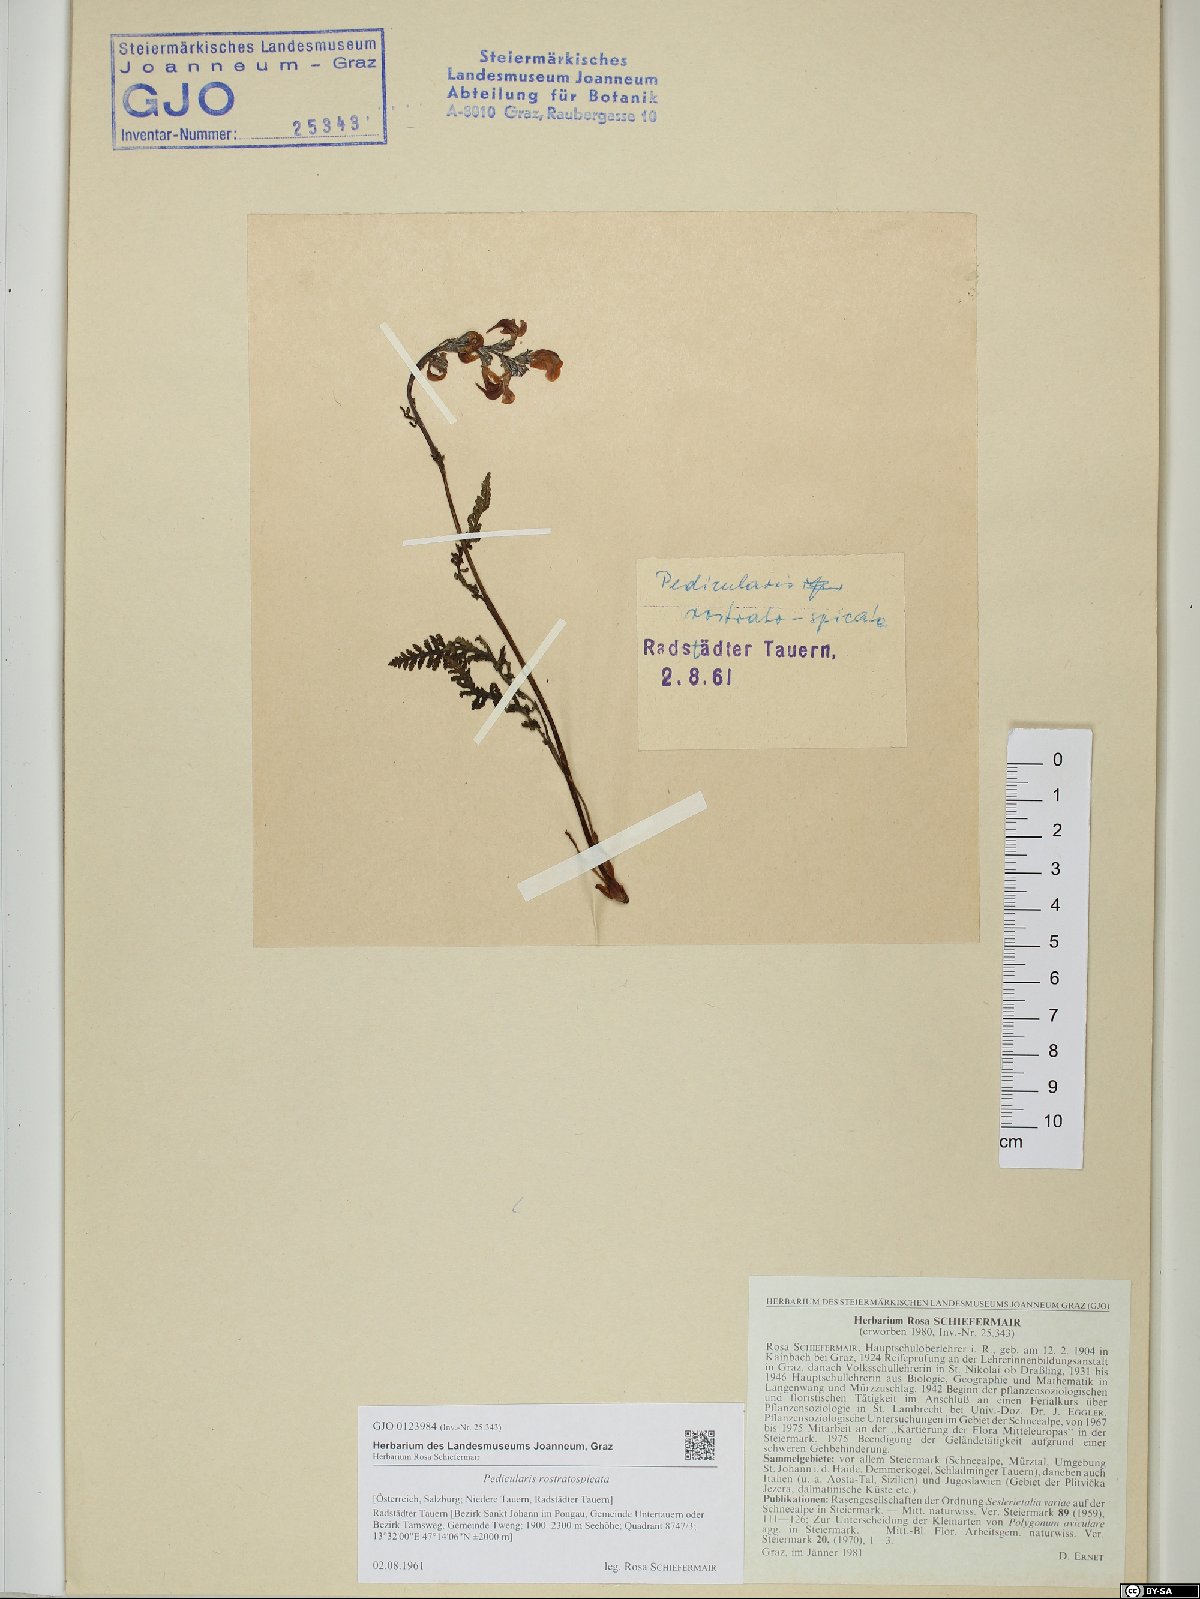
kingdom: Plantae
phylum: Tracheophyta
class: Magnoliopsida
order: Lamiales
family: Orobanchaceae
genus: Pedicularis
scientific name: Pedicularis rostratospicata
